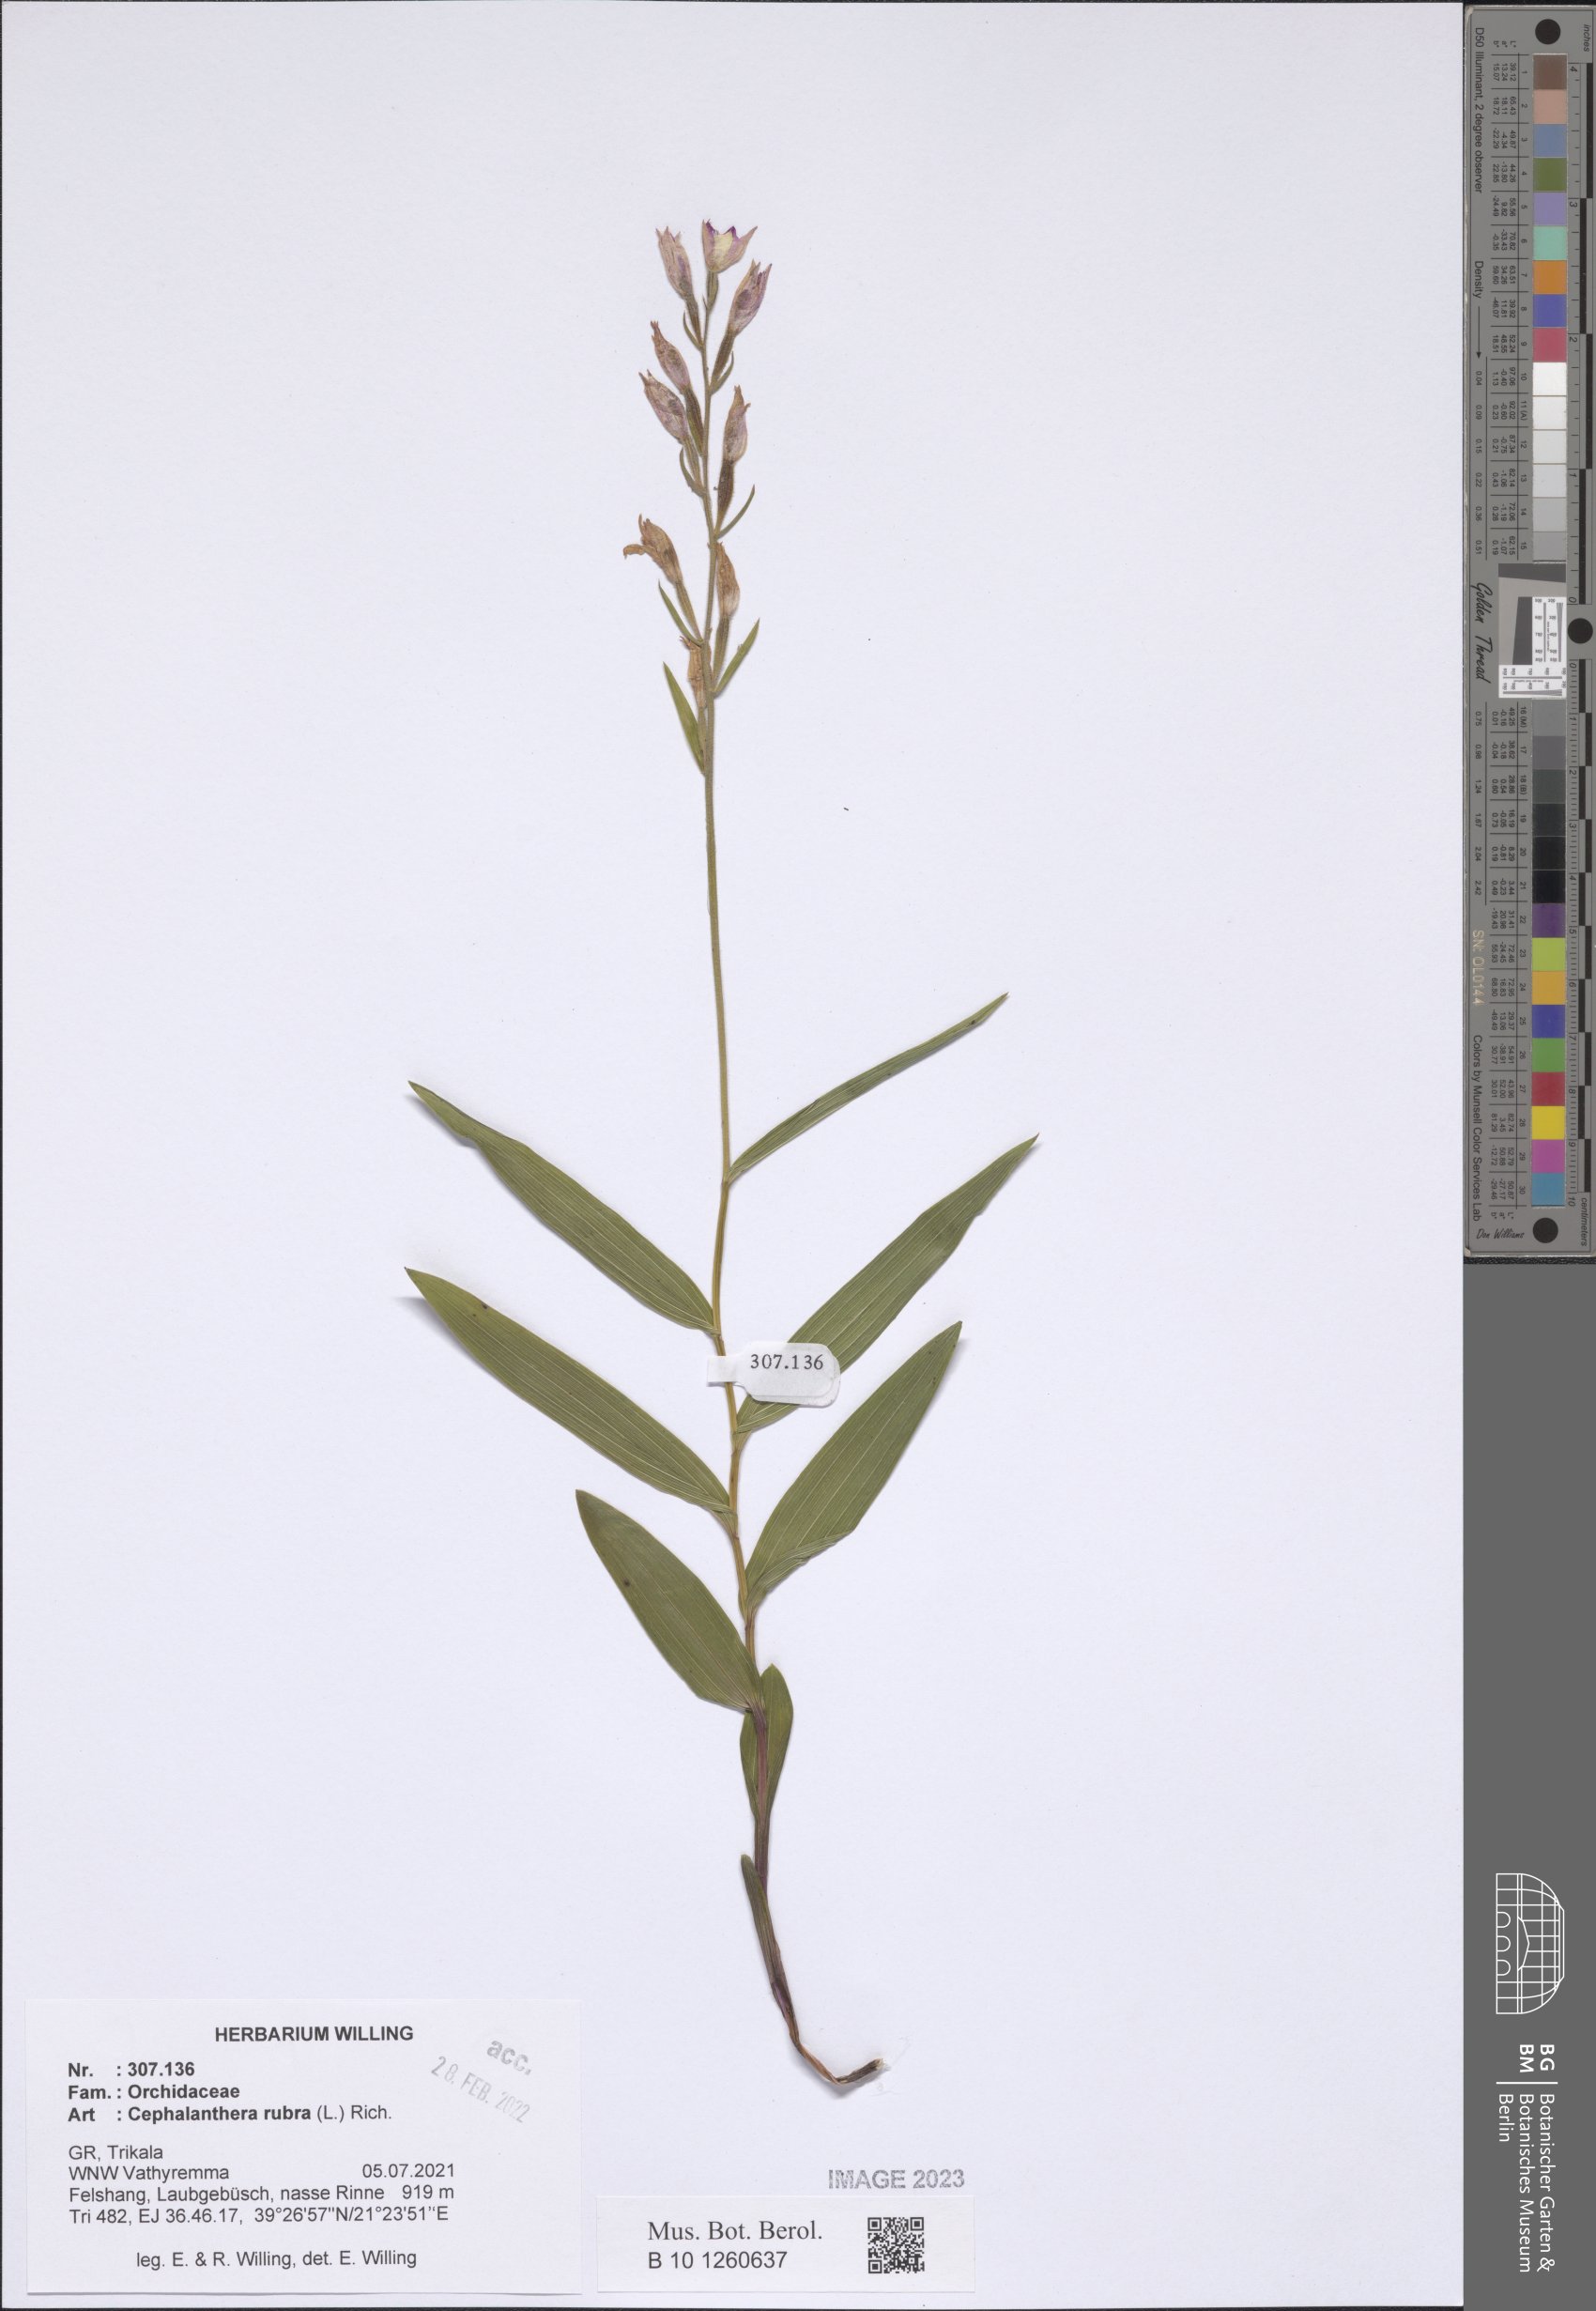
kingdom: Plantae
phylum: Tracheophyta
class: Liliopsida
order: Asparagales
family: Orchidaceae
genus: Cephalanthera
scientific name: Cephalanthera rubra
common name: Red helleborine
